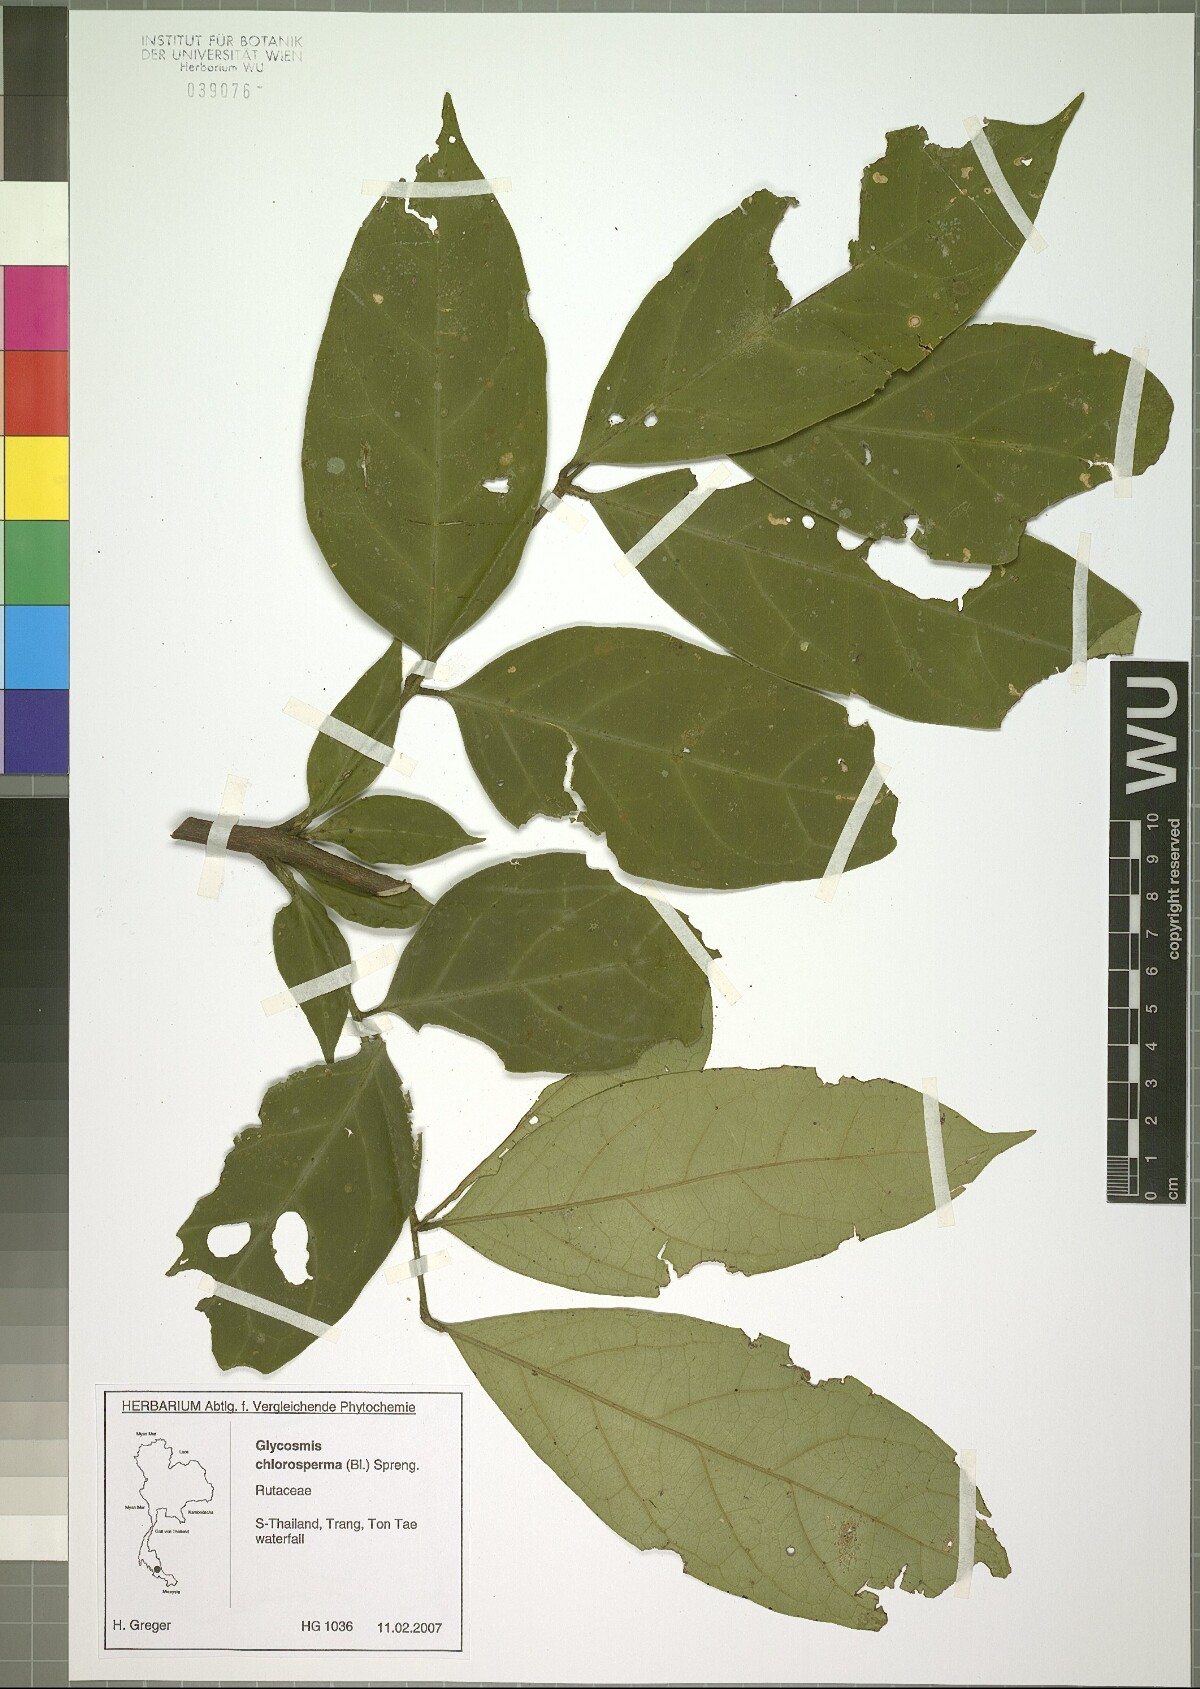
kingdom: Plantae
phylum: Tracheophyta
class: Magnoliopsida
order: Sapindales
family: Rutaceae
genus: Glycosmis
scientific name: Glycosmis chlorosperma
